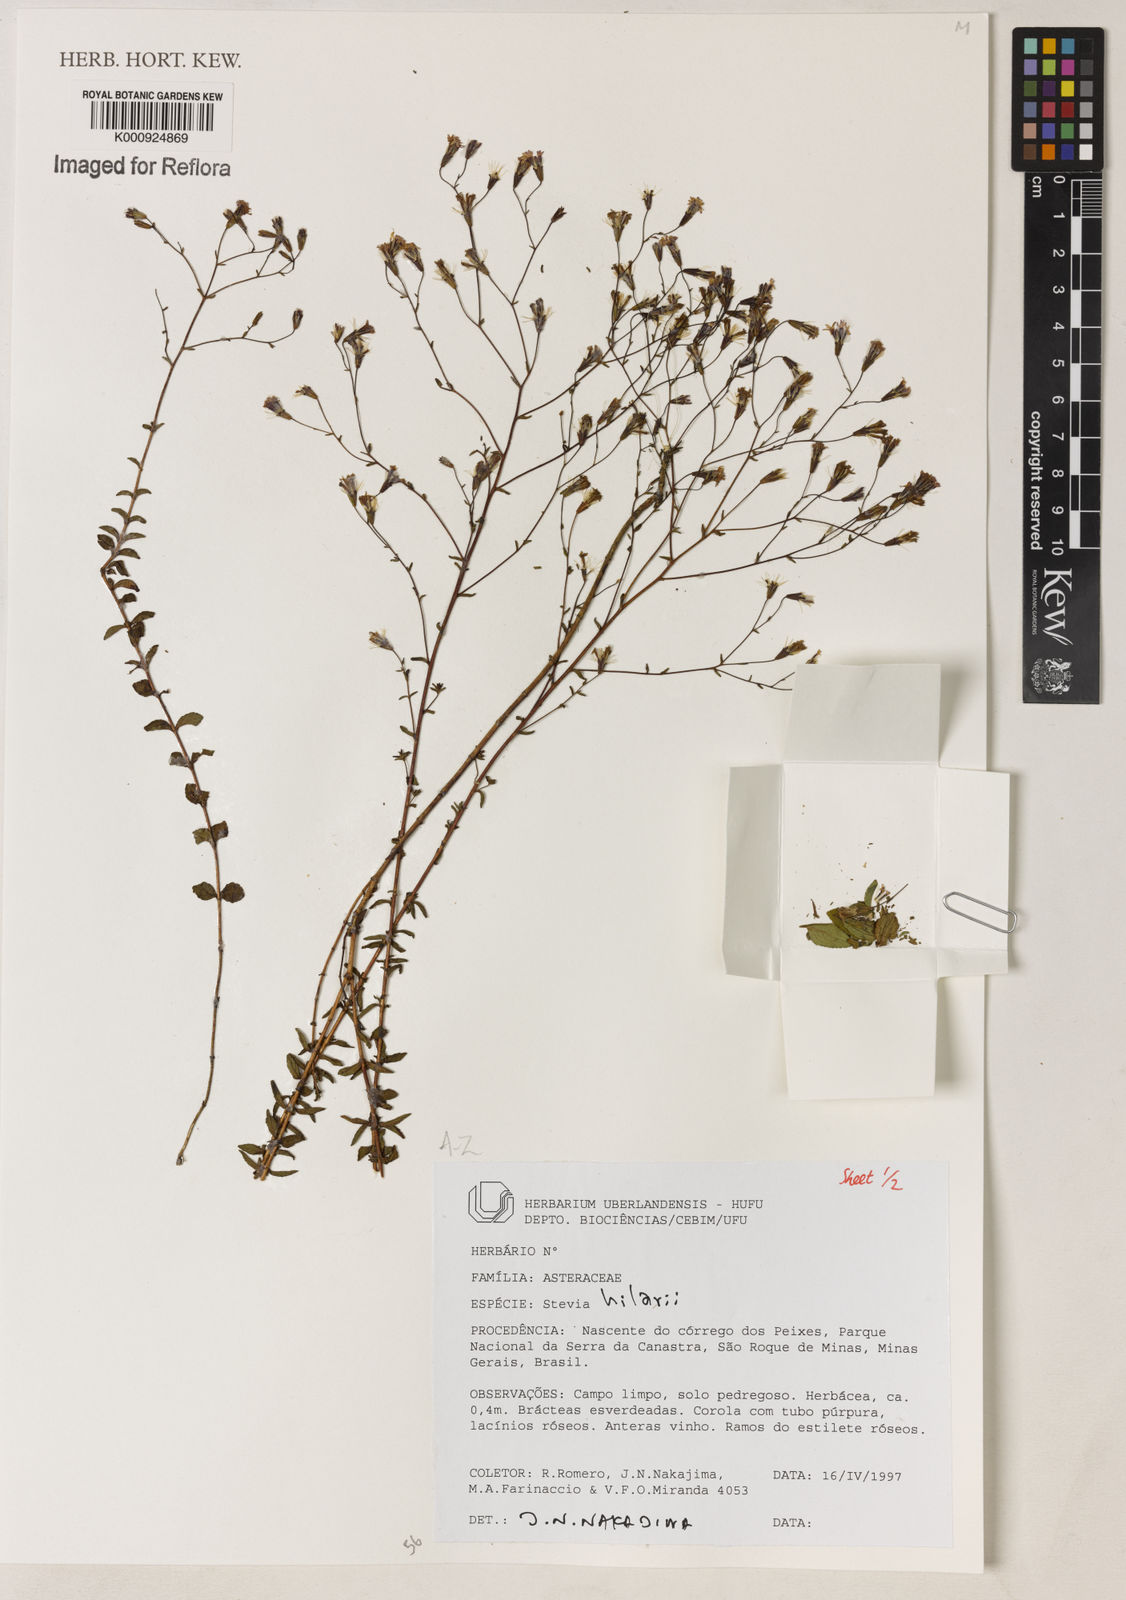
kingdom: Plantae
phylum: Tracheophyta
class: Magnoliopsida
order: Asterales
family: Asteraceae
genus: Stevia
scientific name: Stevia hilarii
